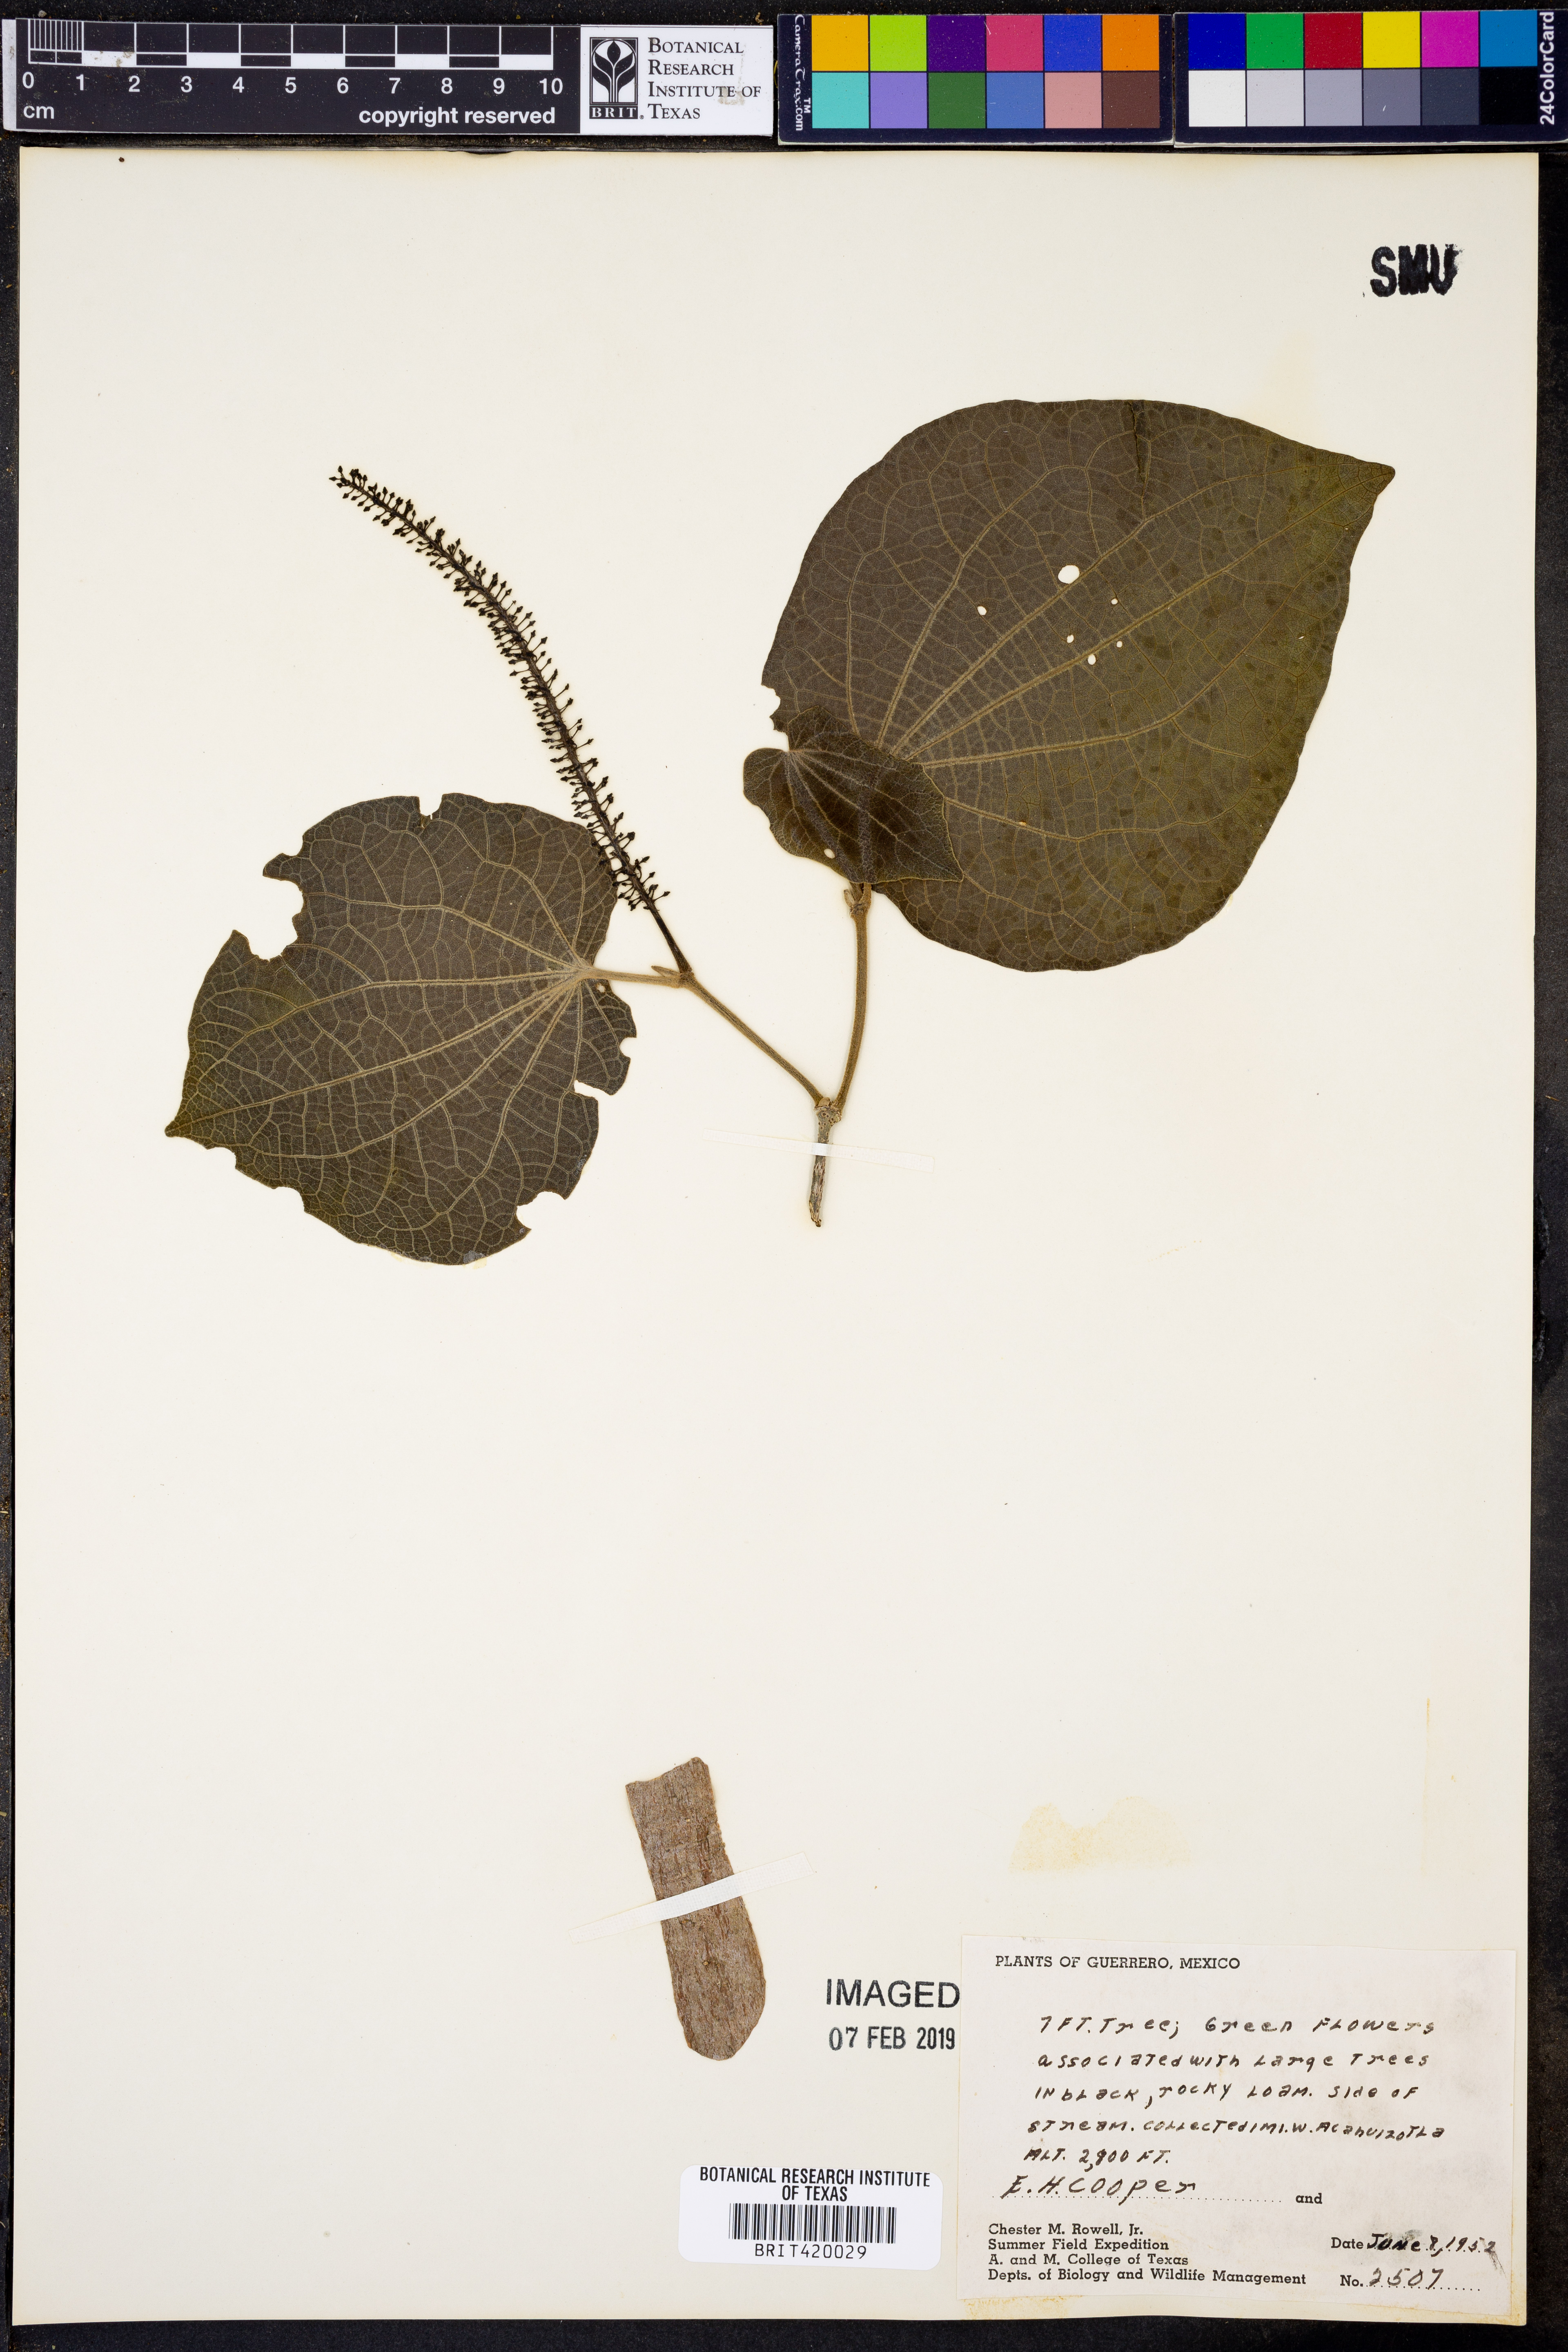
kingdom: Plantae
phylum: Tracheophyta
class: Magnoliopsida
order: Piperales
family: Piperaceae
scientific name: Piperaceae
